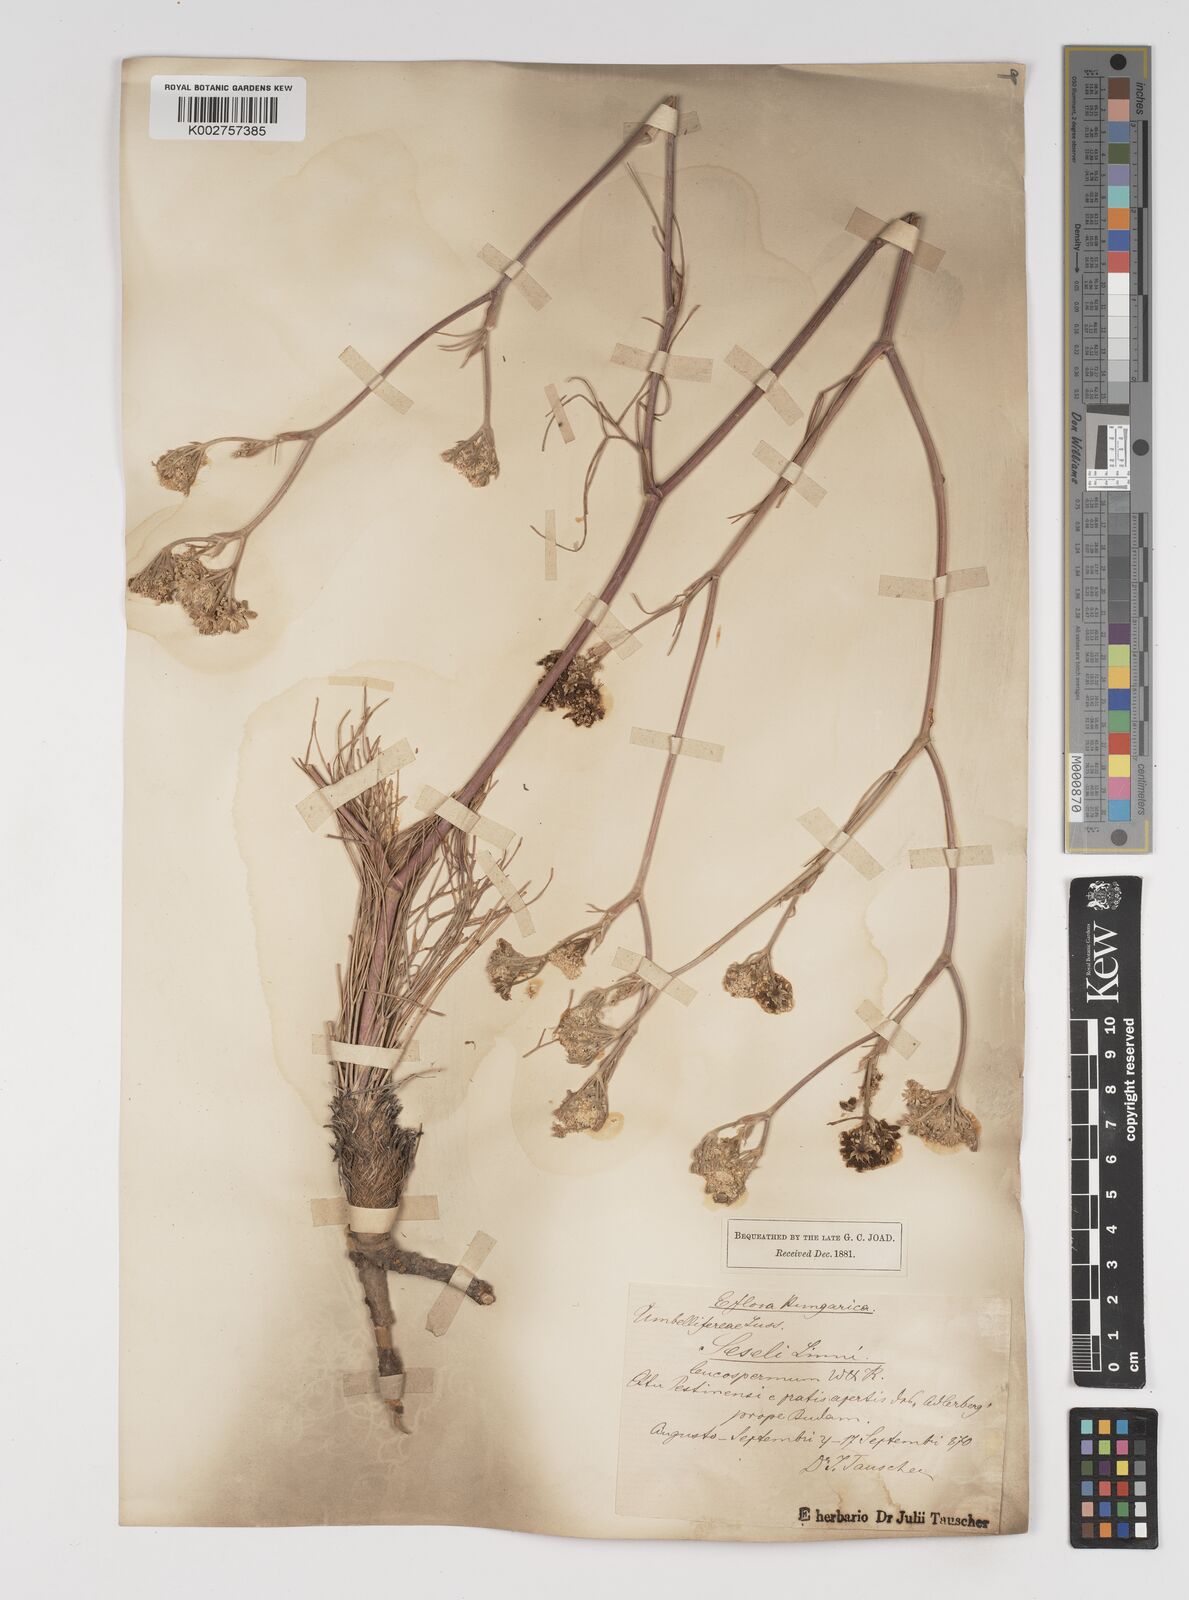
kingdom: Plantae
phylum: Tracheophyta
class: Magnoliopsida
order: Apiales
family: Apiaceae
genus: Seseli
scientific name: Seseli leucospermum
